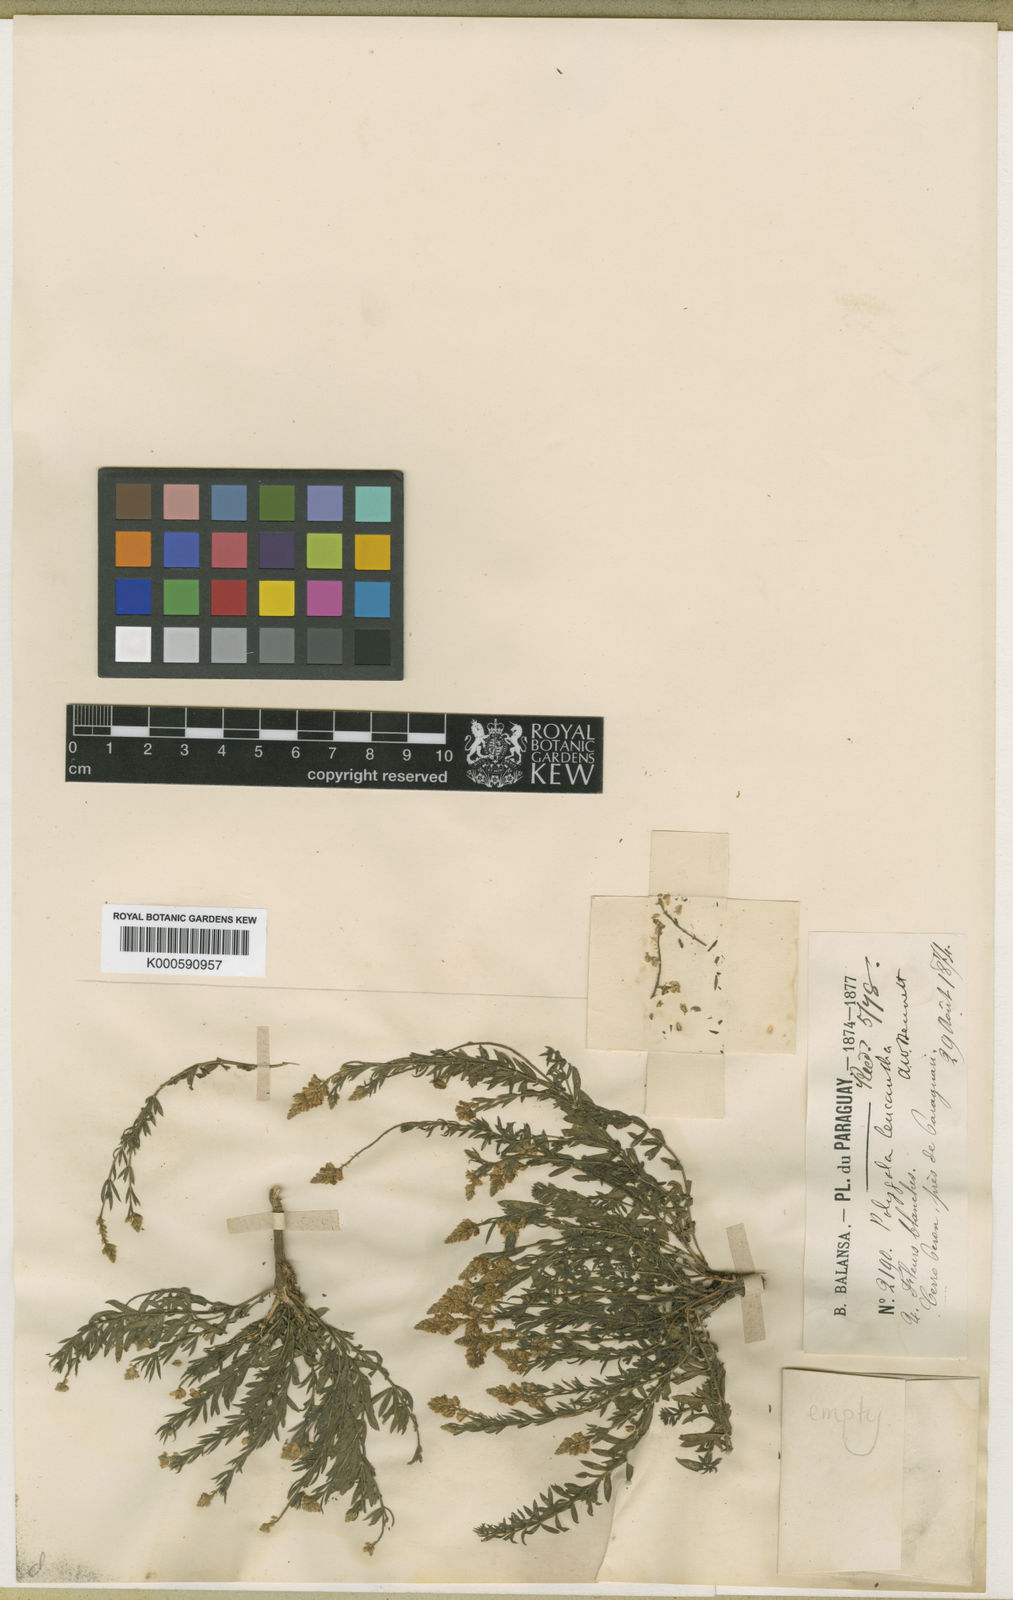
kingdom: Plantae
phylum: Tracheophyta
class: Magnoliopsida
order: Fabales
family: Polygalaceae
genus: Polygala
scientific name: Polygala leucantha
